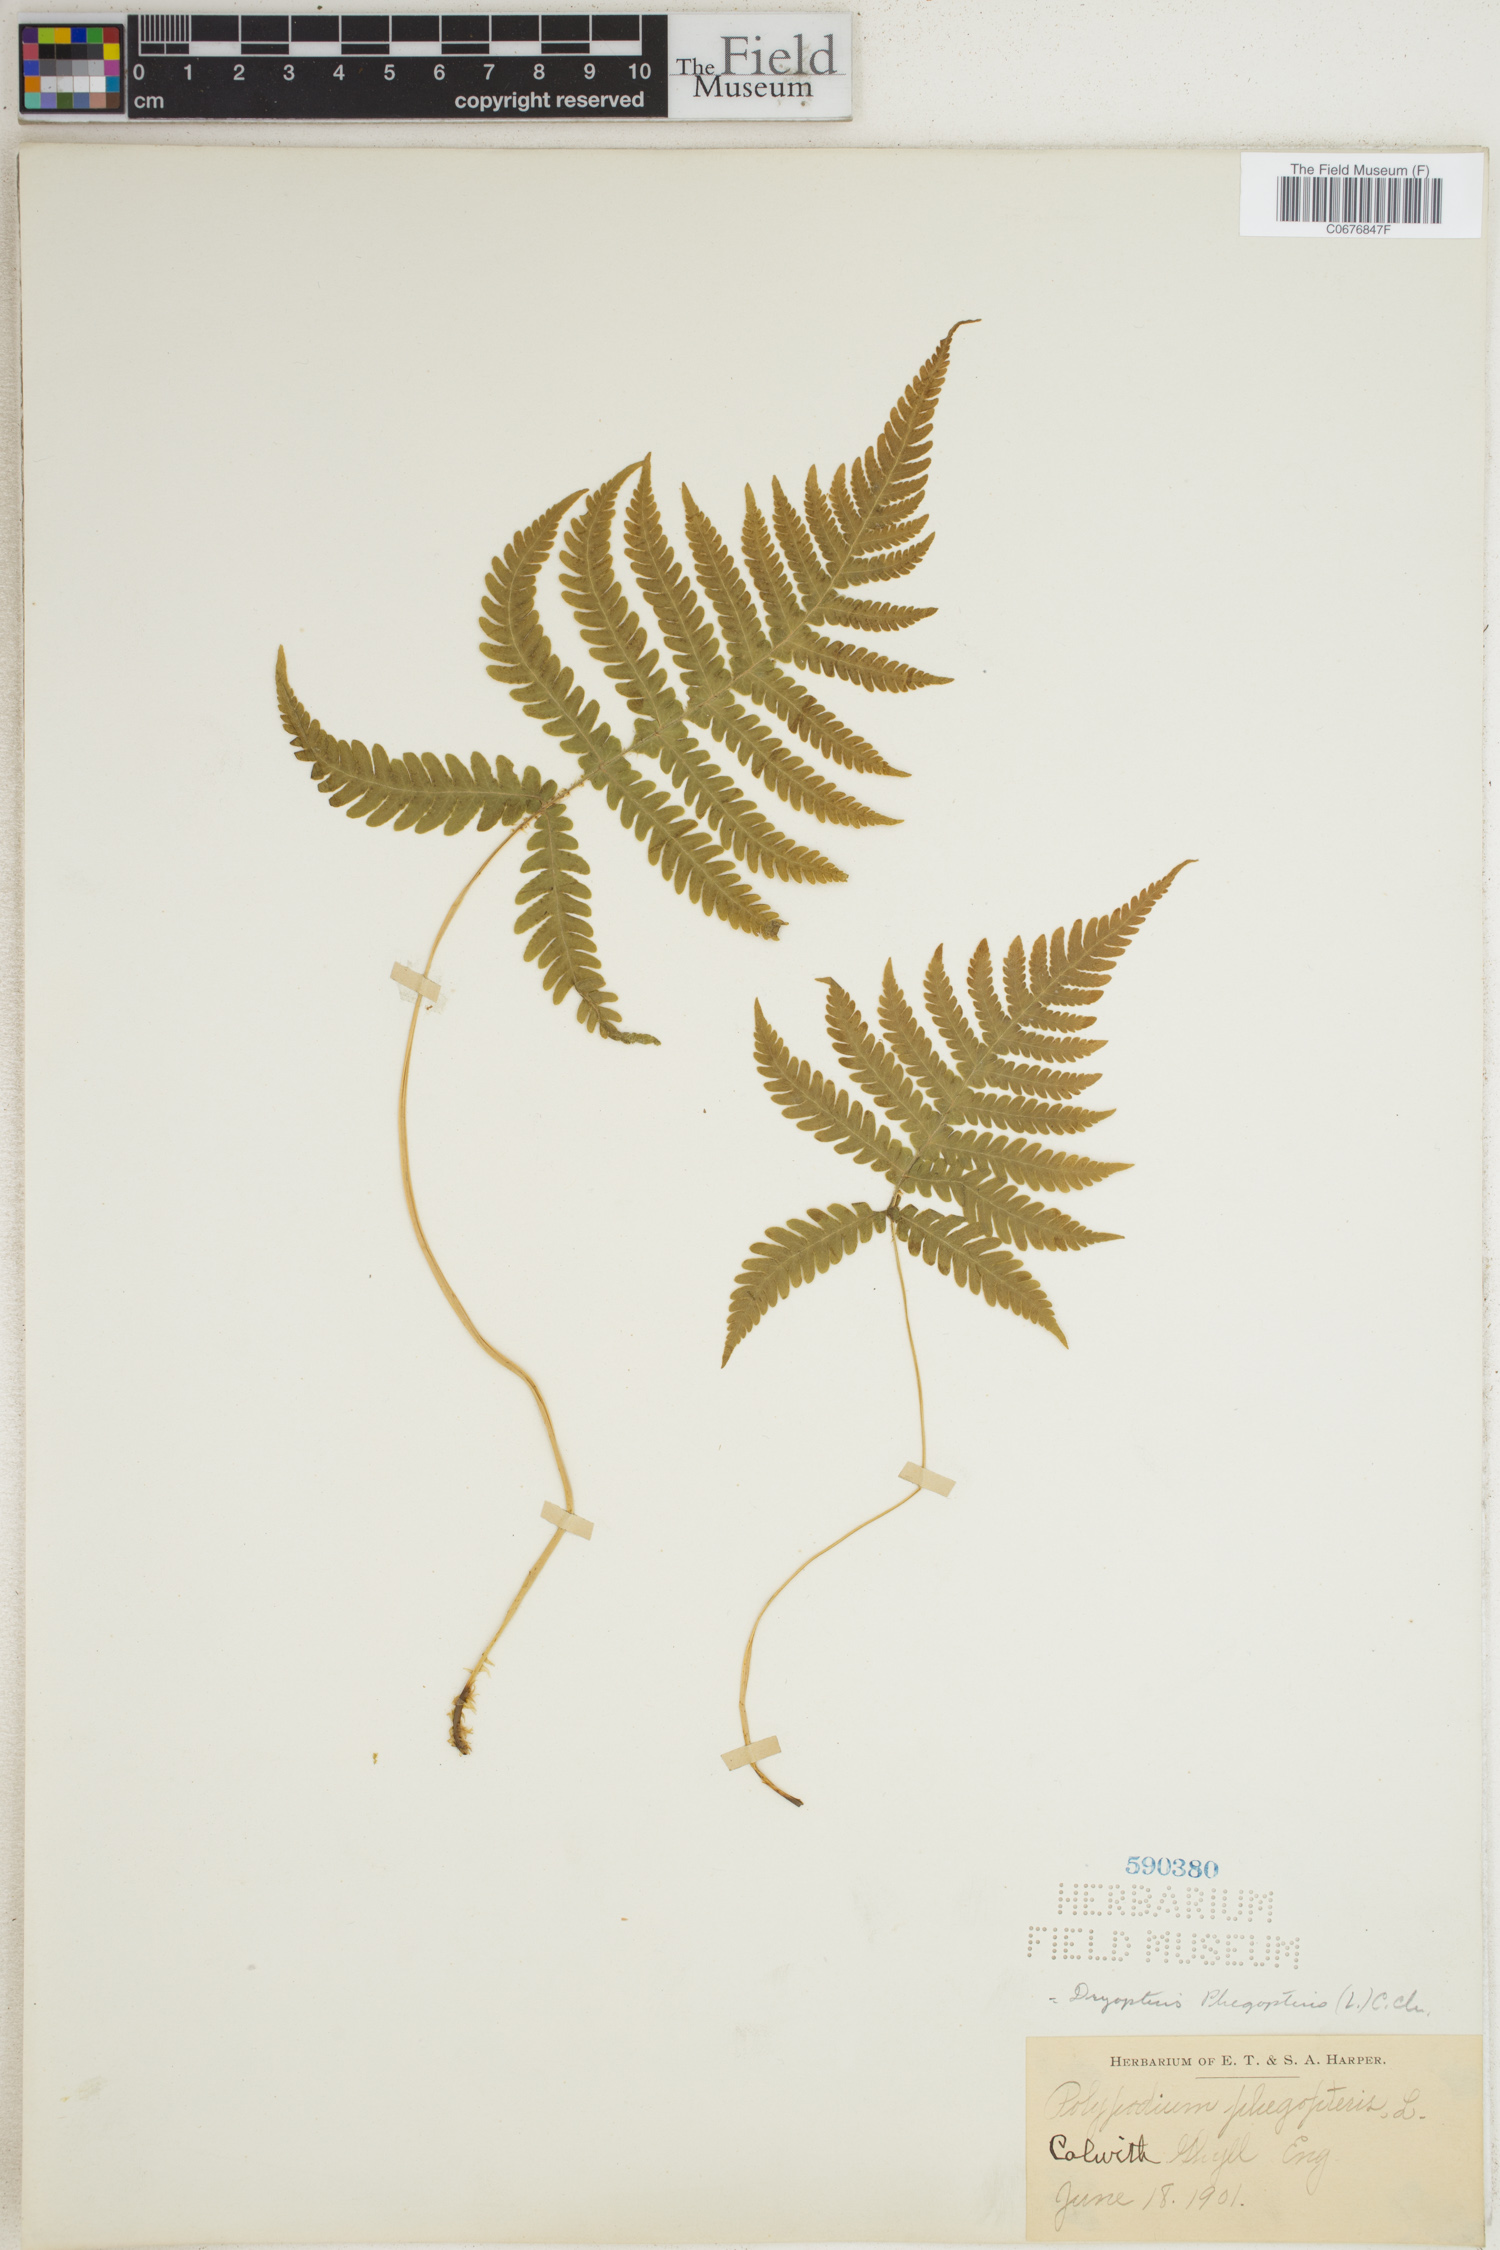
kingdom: Plantae
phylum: Tracheophyta
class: Polypodiopsida
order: Polypodiales
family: Thelypteridaceae
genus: Phegopteris
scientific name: Phegopteris connectilis
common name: Beech fern
